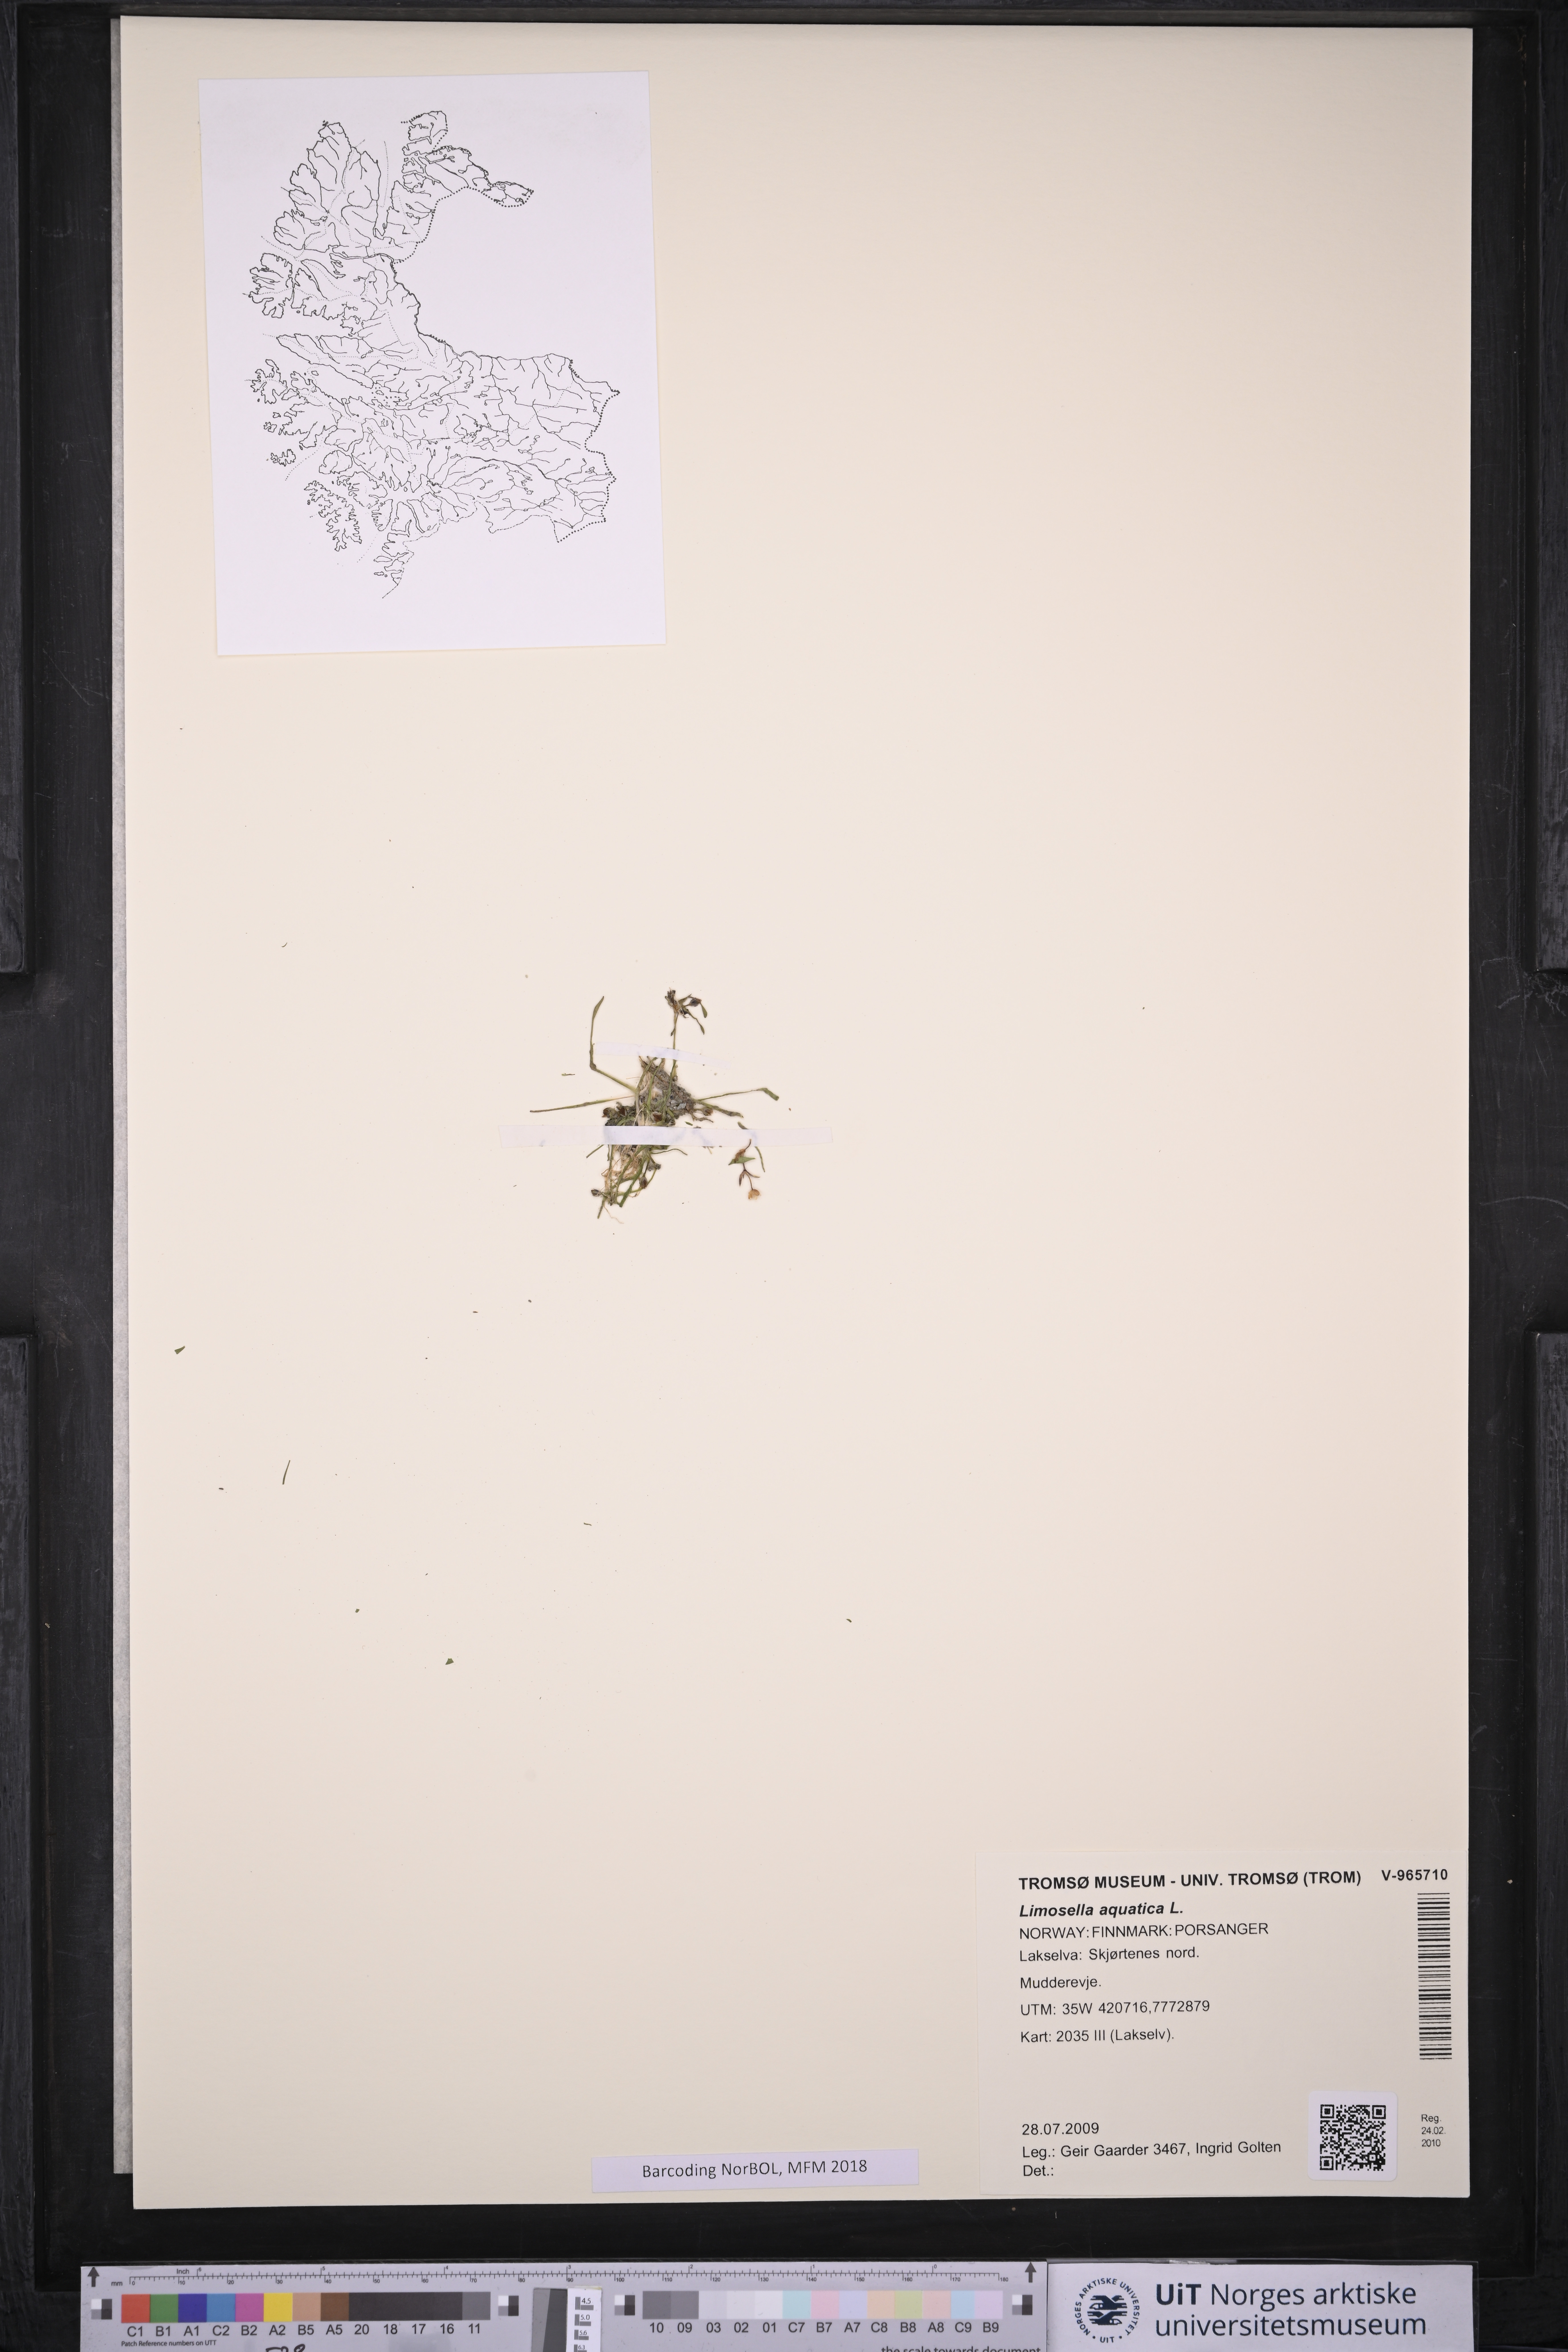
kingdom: Plantae
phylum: Tracheophyta
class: Magnoliopsida
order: Lamiales
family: Scrophulariaceae
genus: Limosella
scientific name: Limosella aquatica
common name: Mudwort
